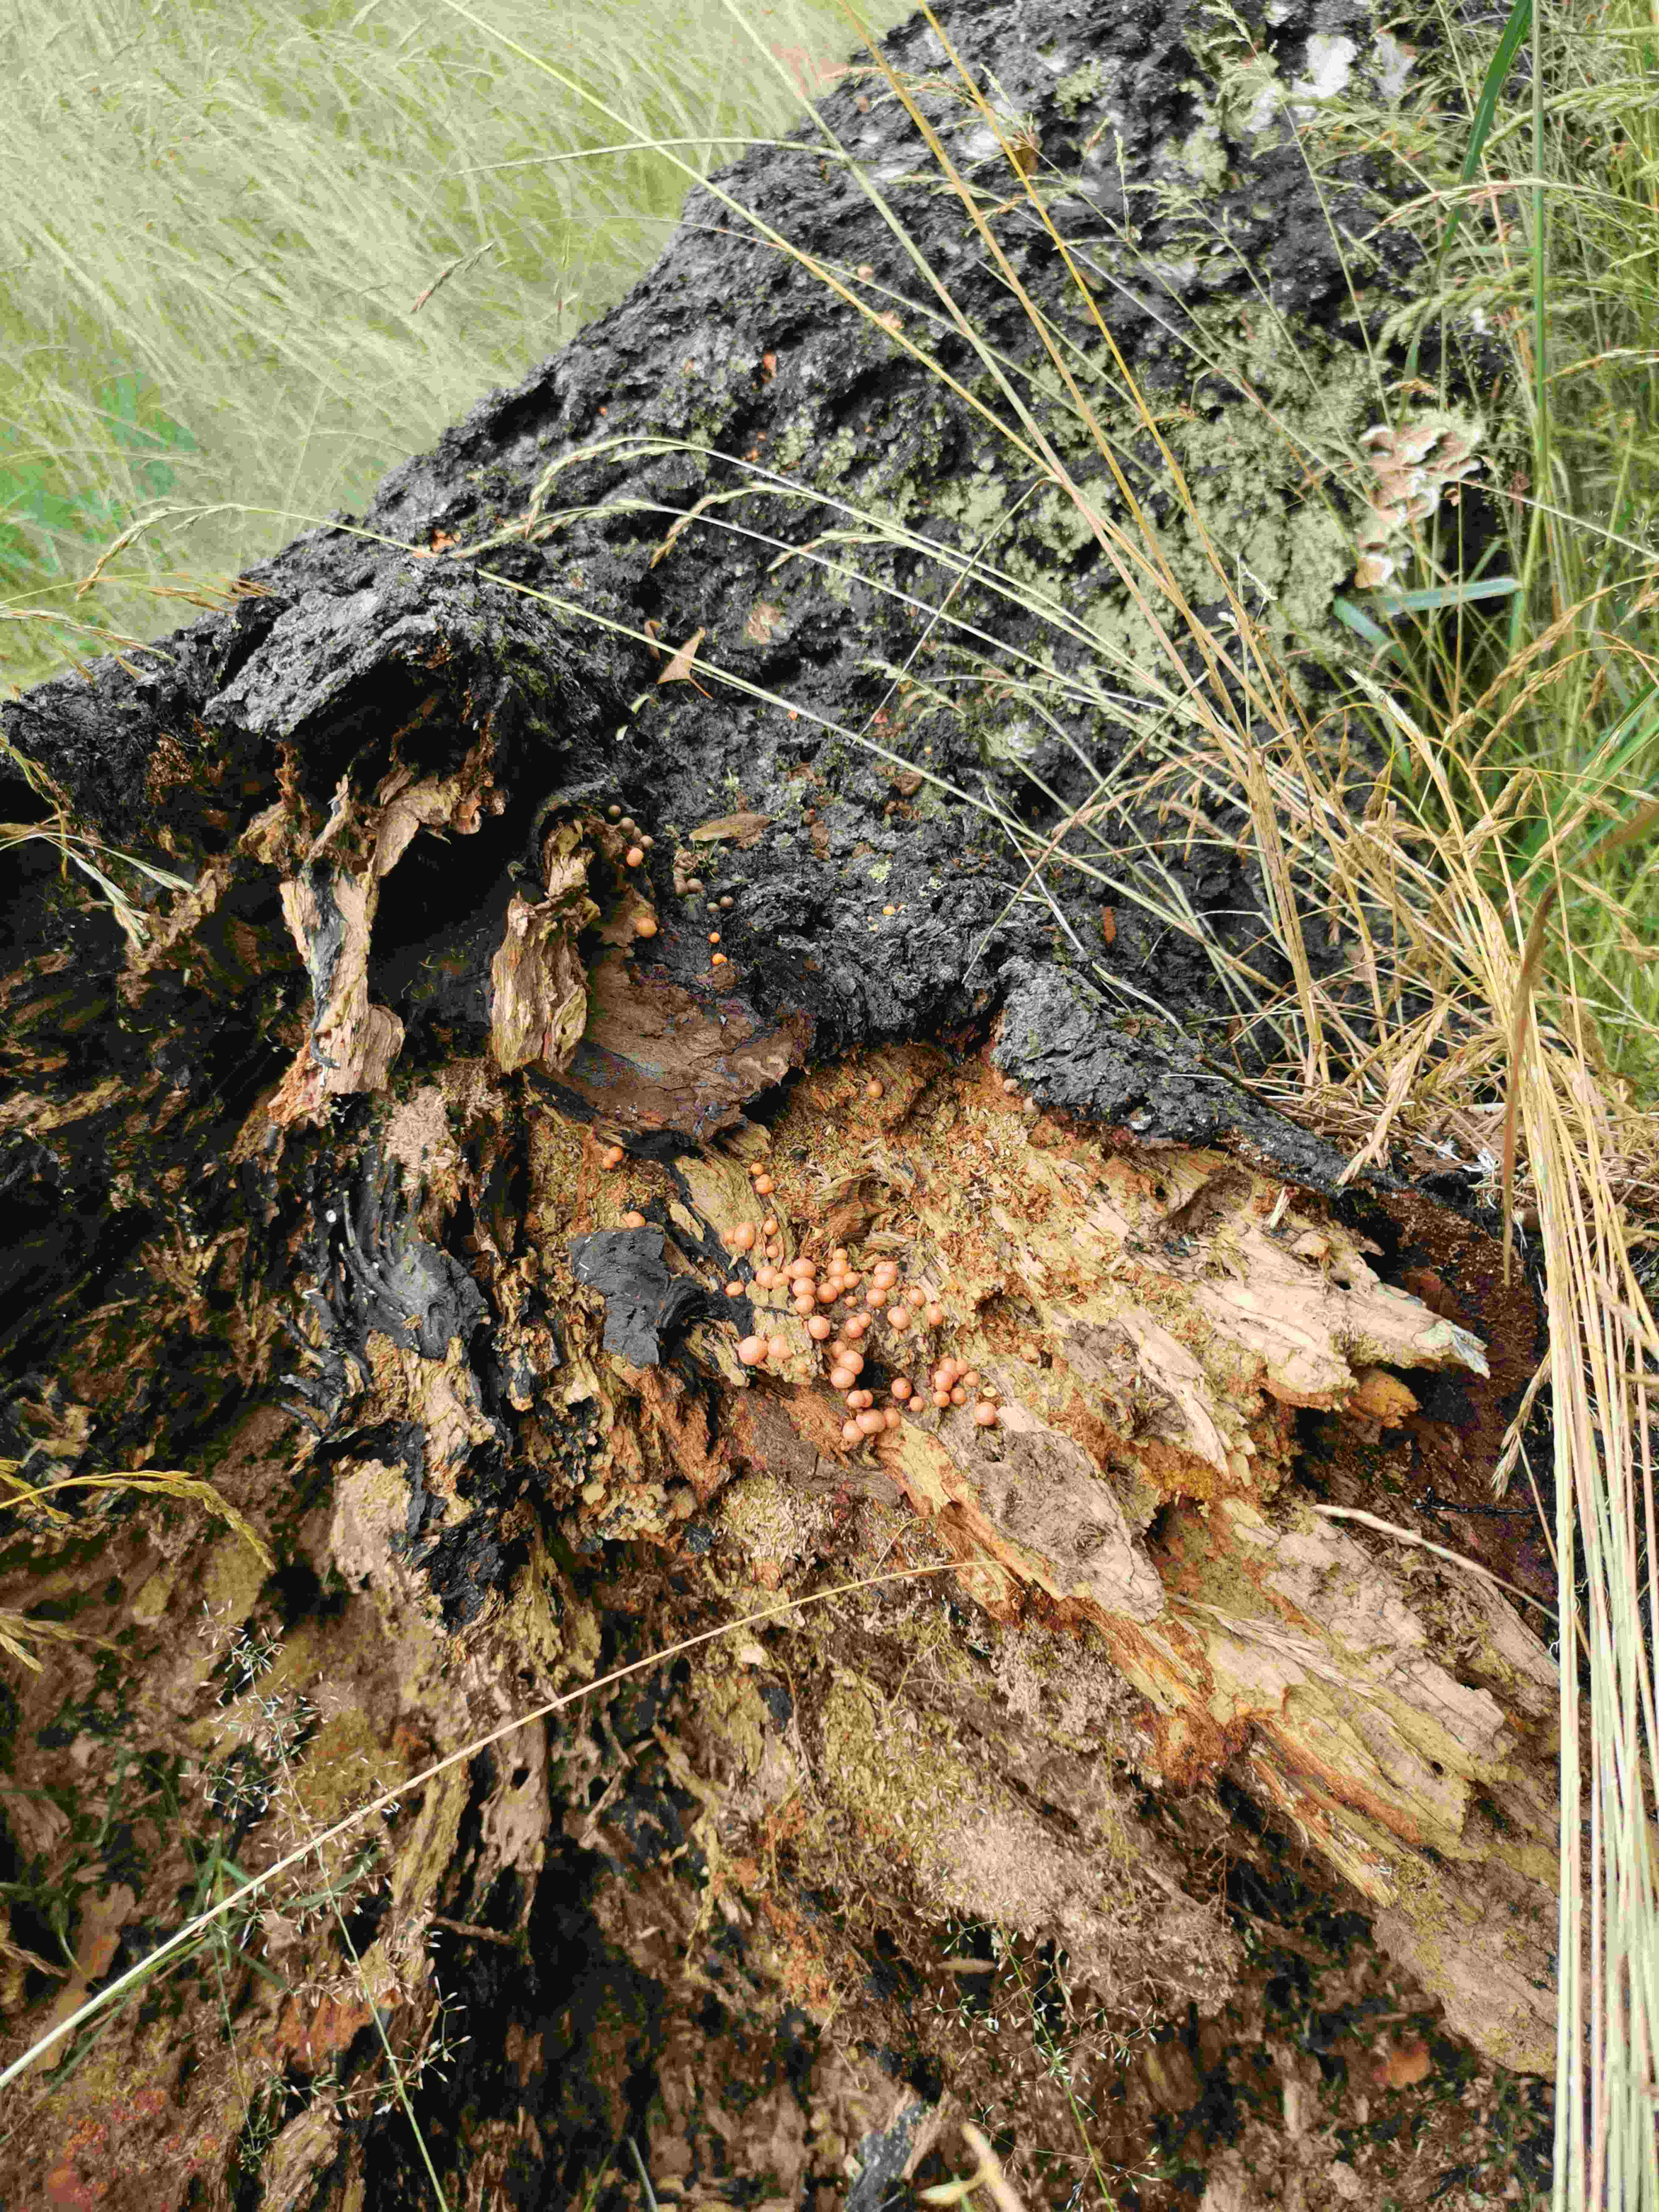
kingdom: Protozoa
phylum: Mycetozoa
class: Myxomycetes
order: Cribrariales
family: Tubiferaceae
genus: Lycogala
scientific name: Lycogala epidendrum
